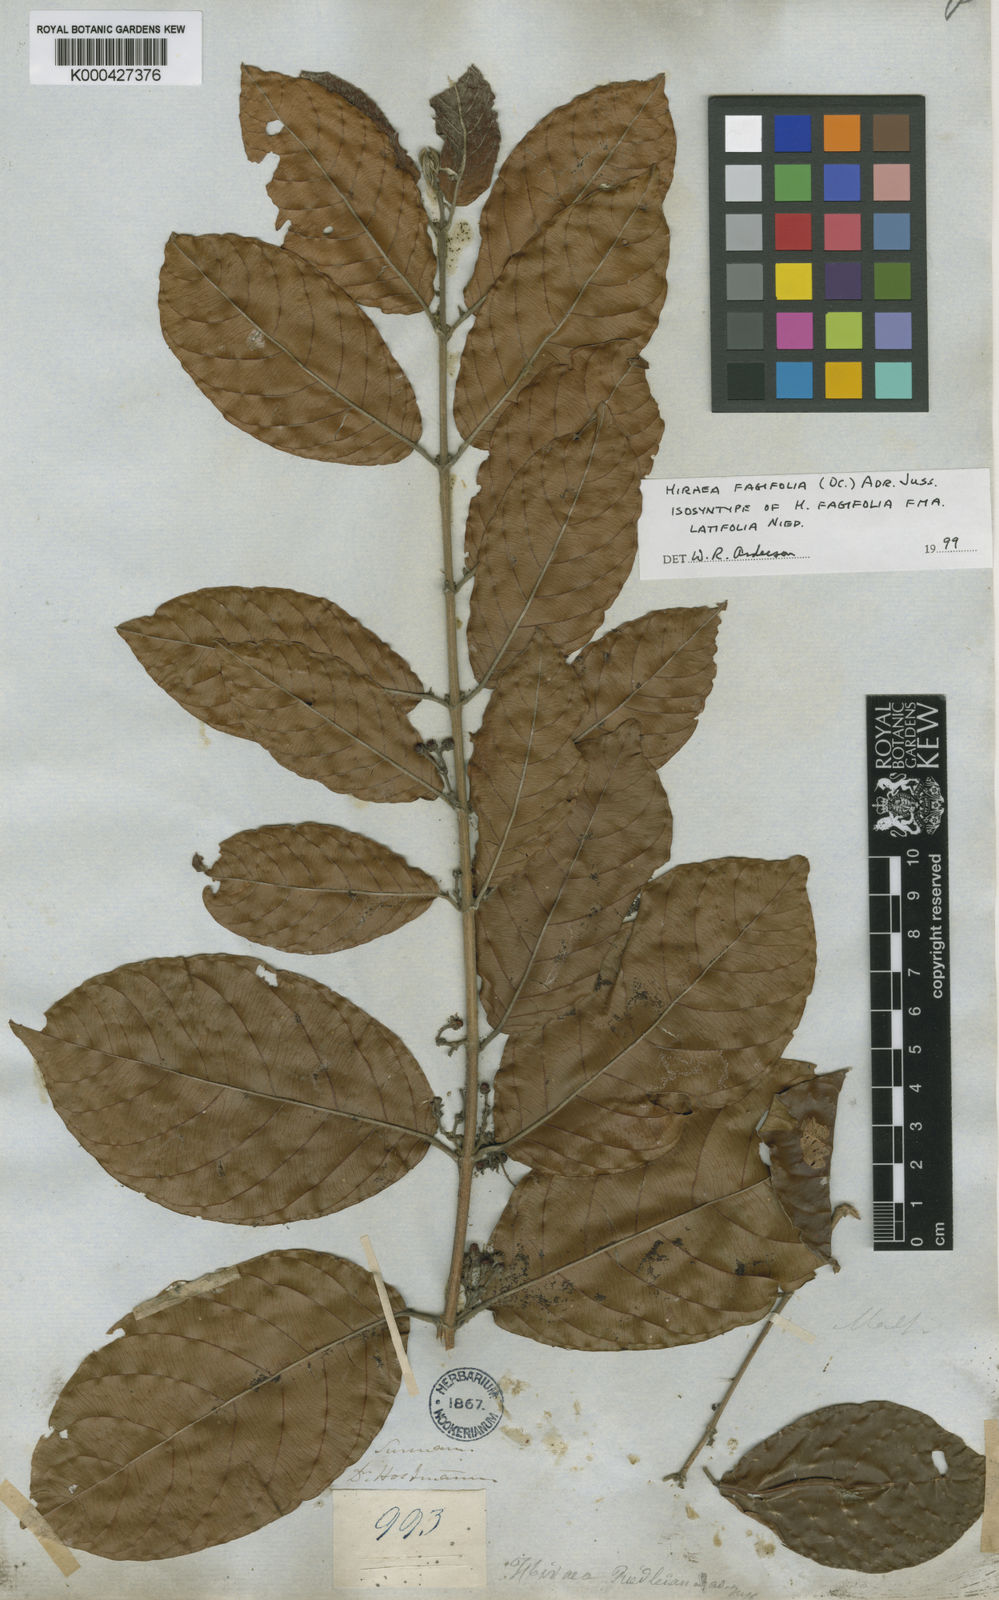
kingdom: Plantae
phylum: Tracheophyta
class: Magnoliopsida
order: Malpighiales
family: Malpighiaceae
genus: Hiraea
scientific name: Hiraea fagifolia
